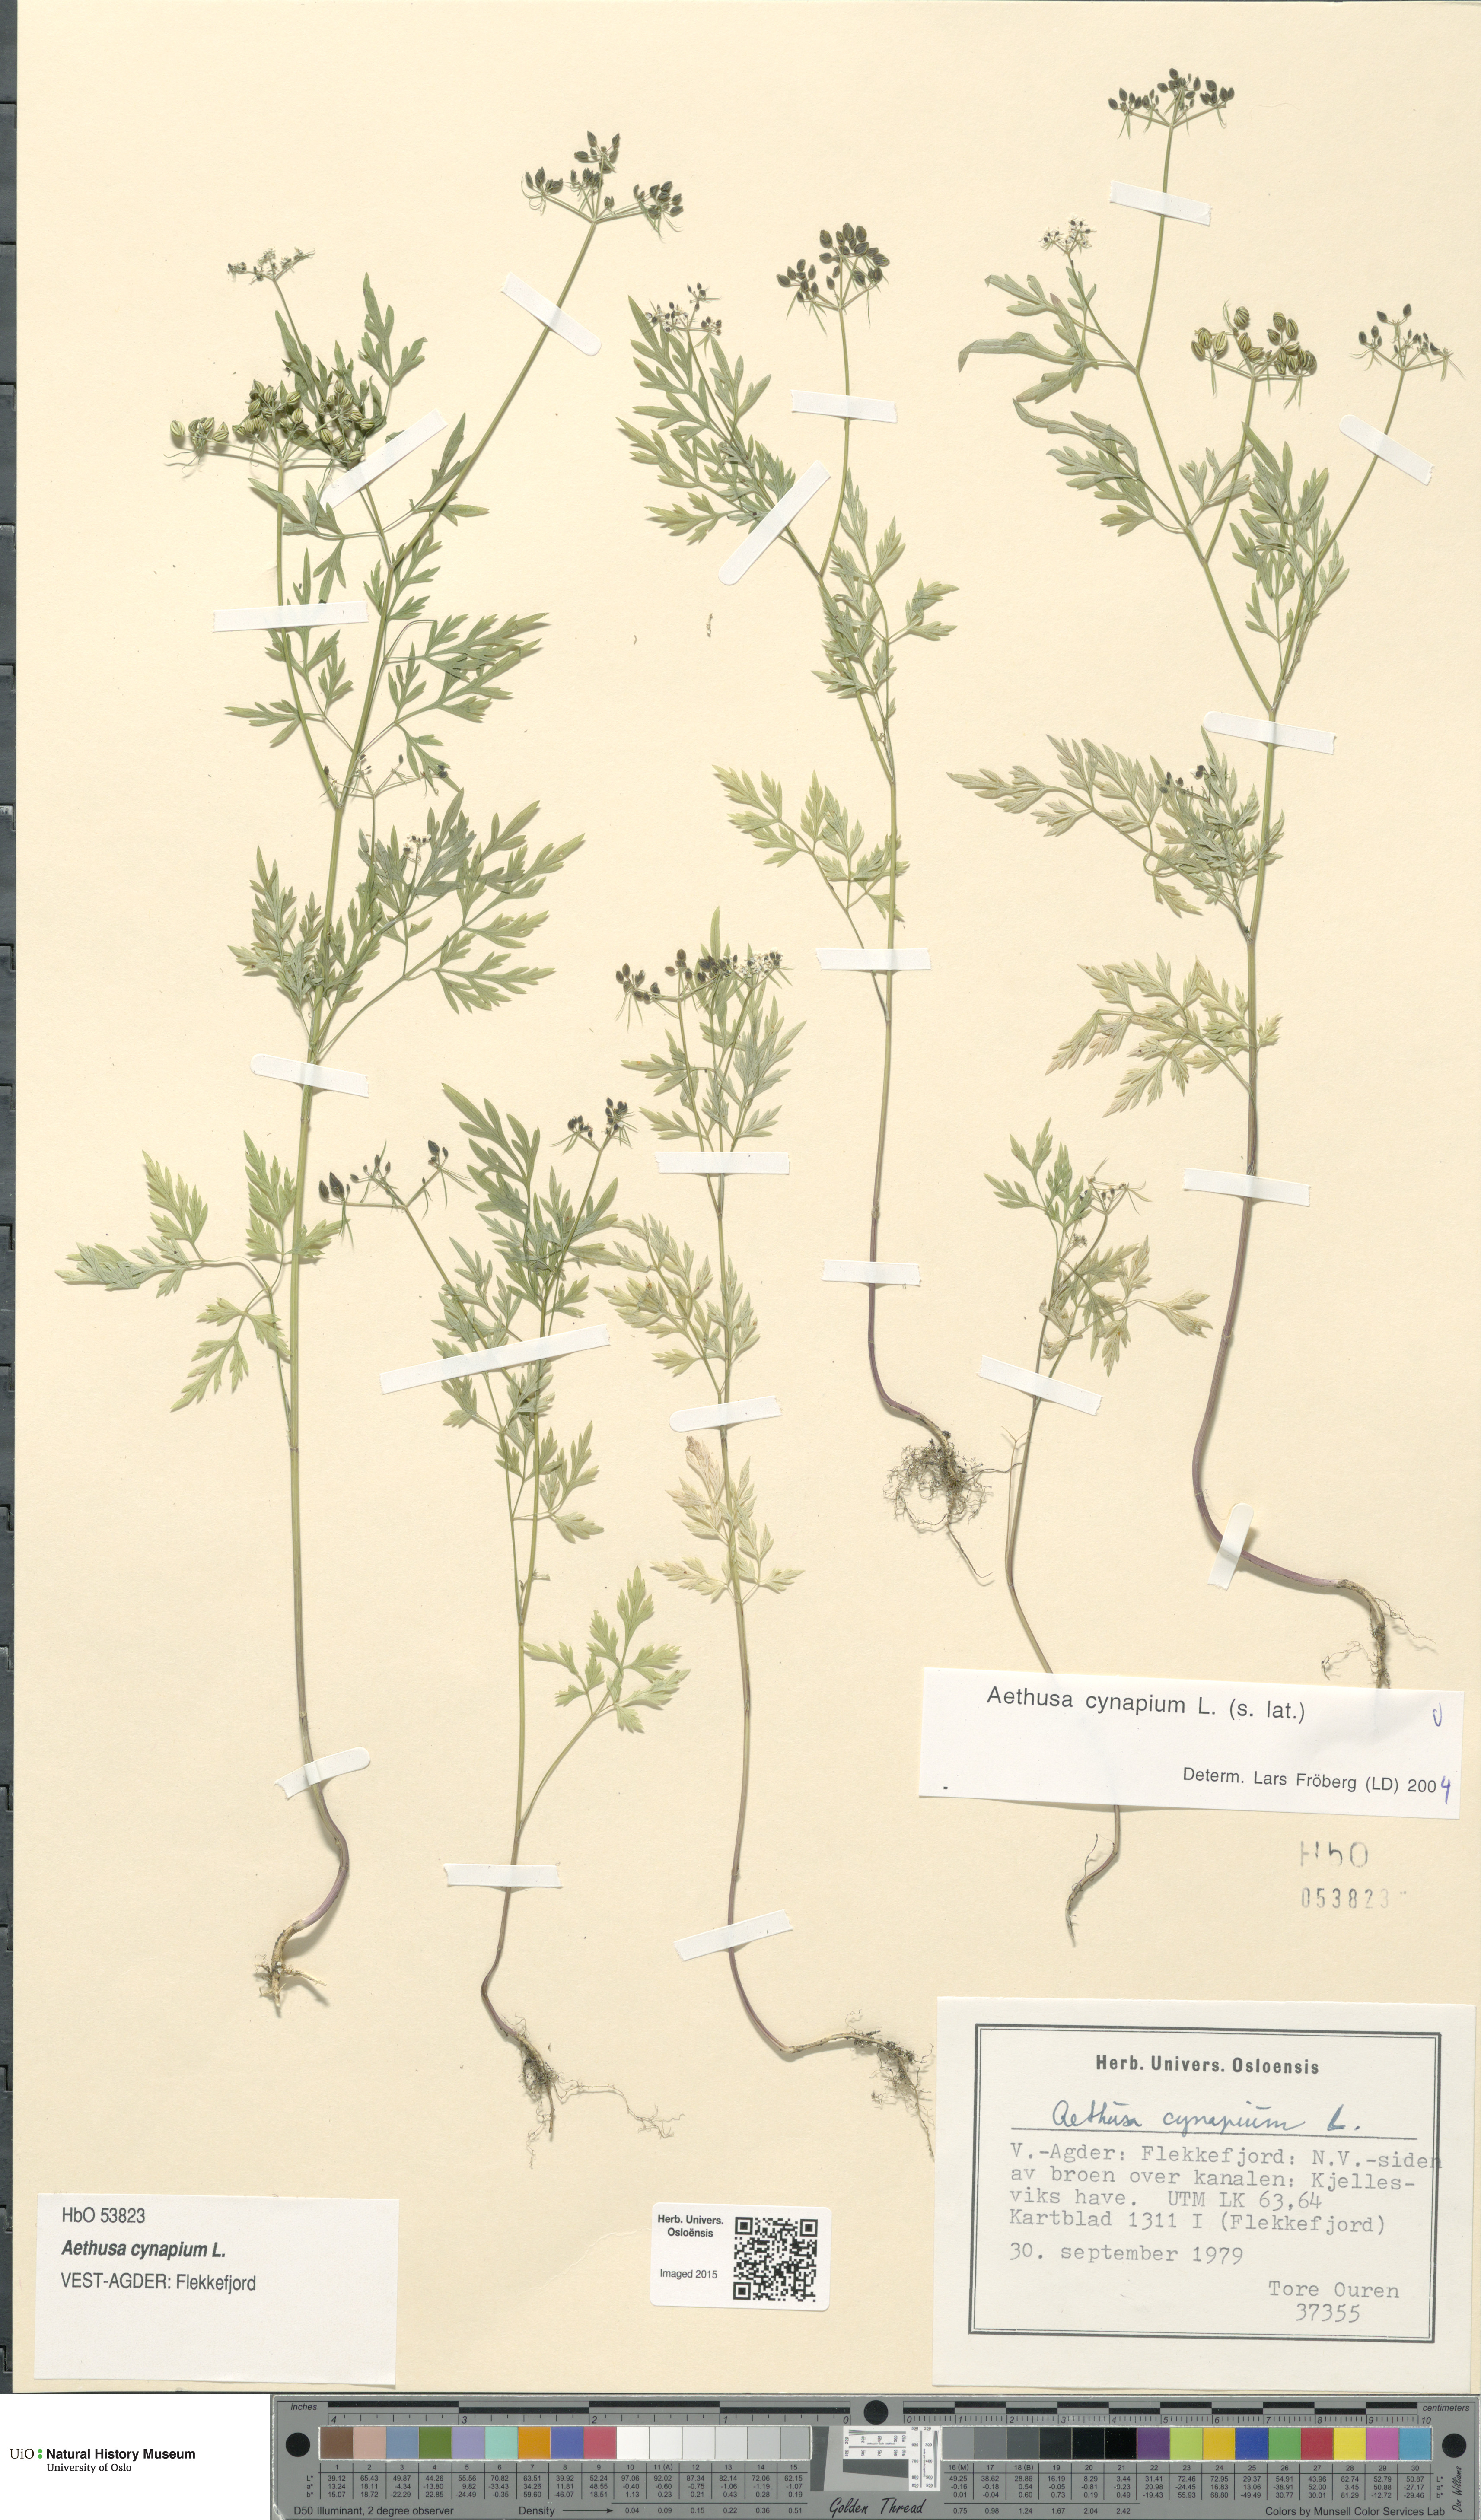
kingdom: Plantae
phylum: Tracheophyta
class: Magnoliopsida
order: Apiales
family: Apiaceae
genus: Aethusa
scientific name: Aethusa cynapium
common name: Fool's parsley
